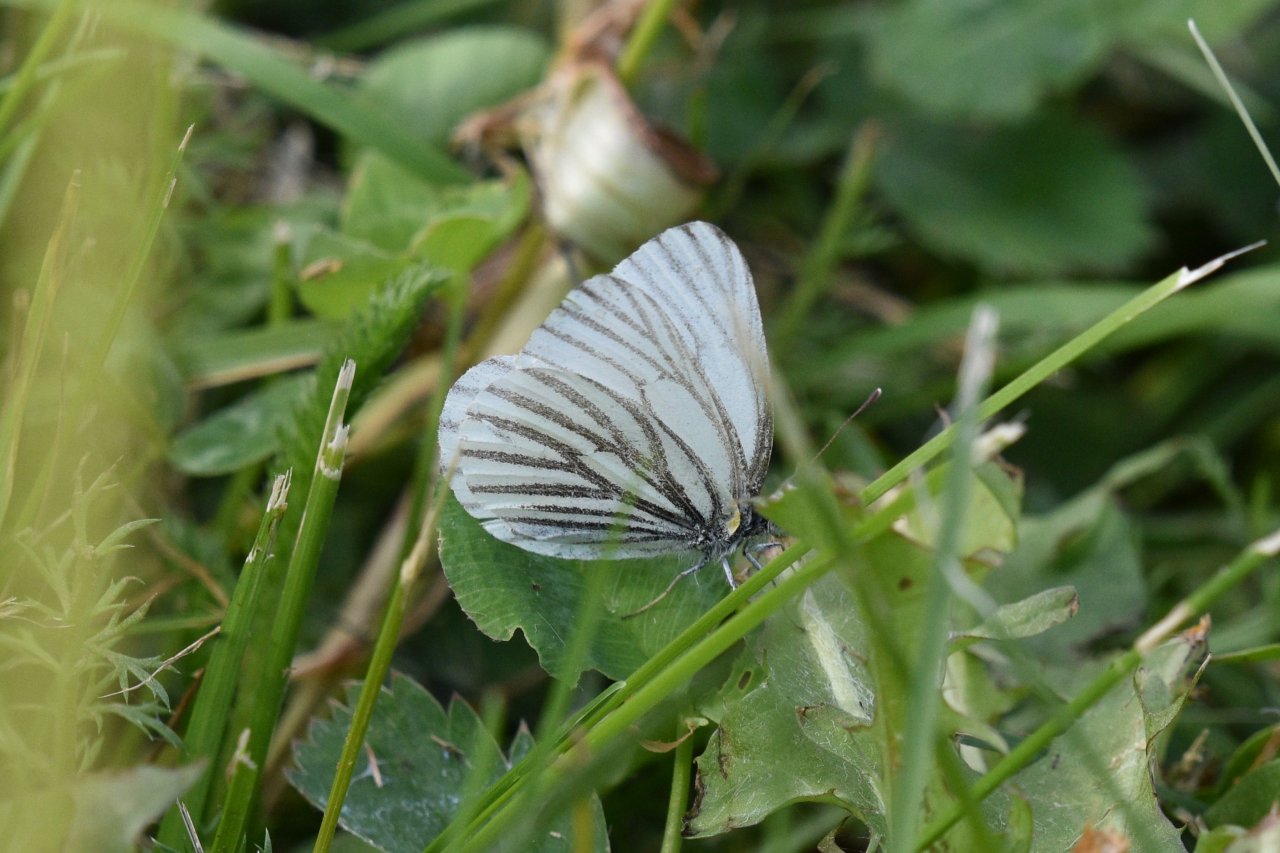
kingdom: Animalia
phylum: Arthropoda
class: Insecta
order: Lepidoptera
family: Pieridae
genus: Pieris
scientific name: Pieris oleracea
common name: Mustard White
